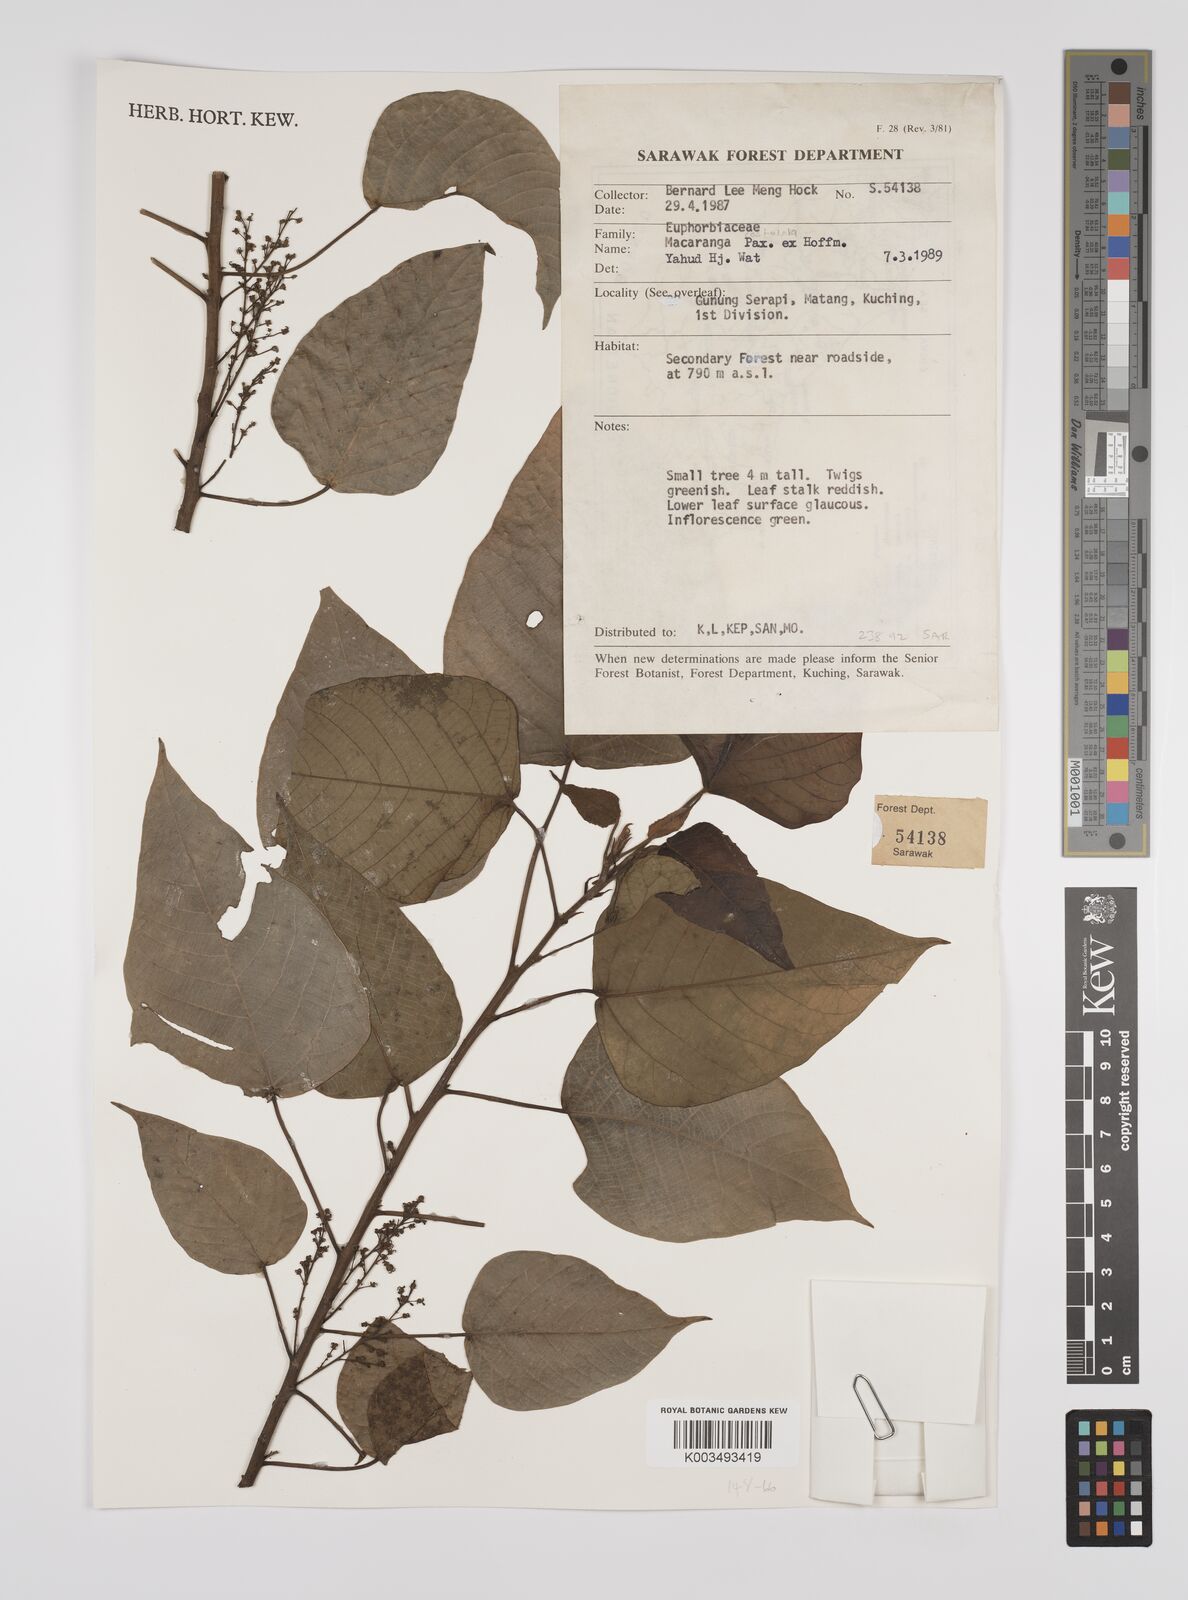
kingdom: Plantae
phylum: Tracheophyta
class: Magnoliopsida
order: Malpighiales
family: Euphorbiaceae
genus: Macaranga
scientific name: Macaranga costulata
